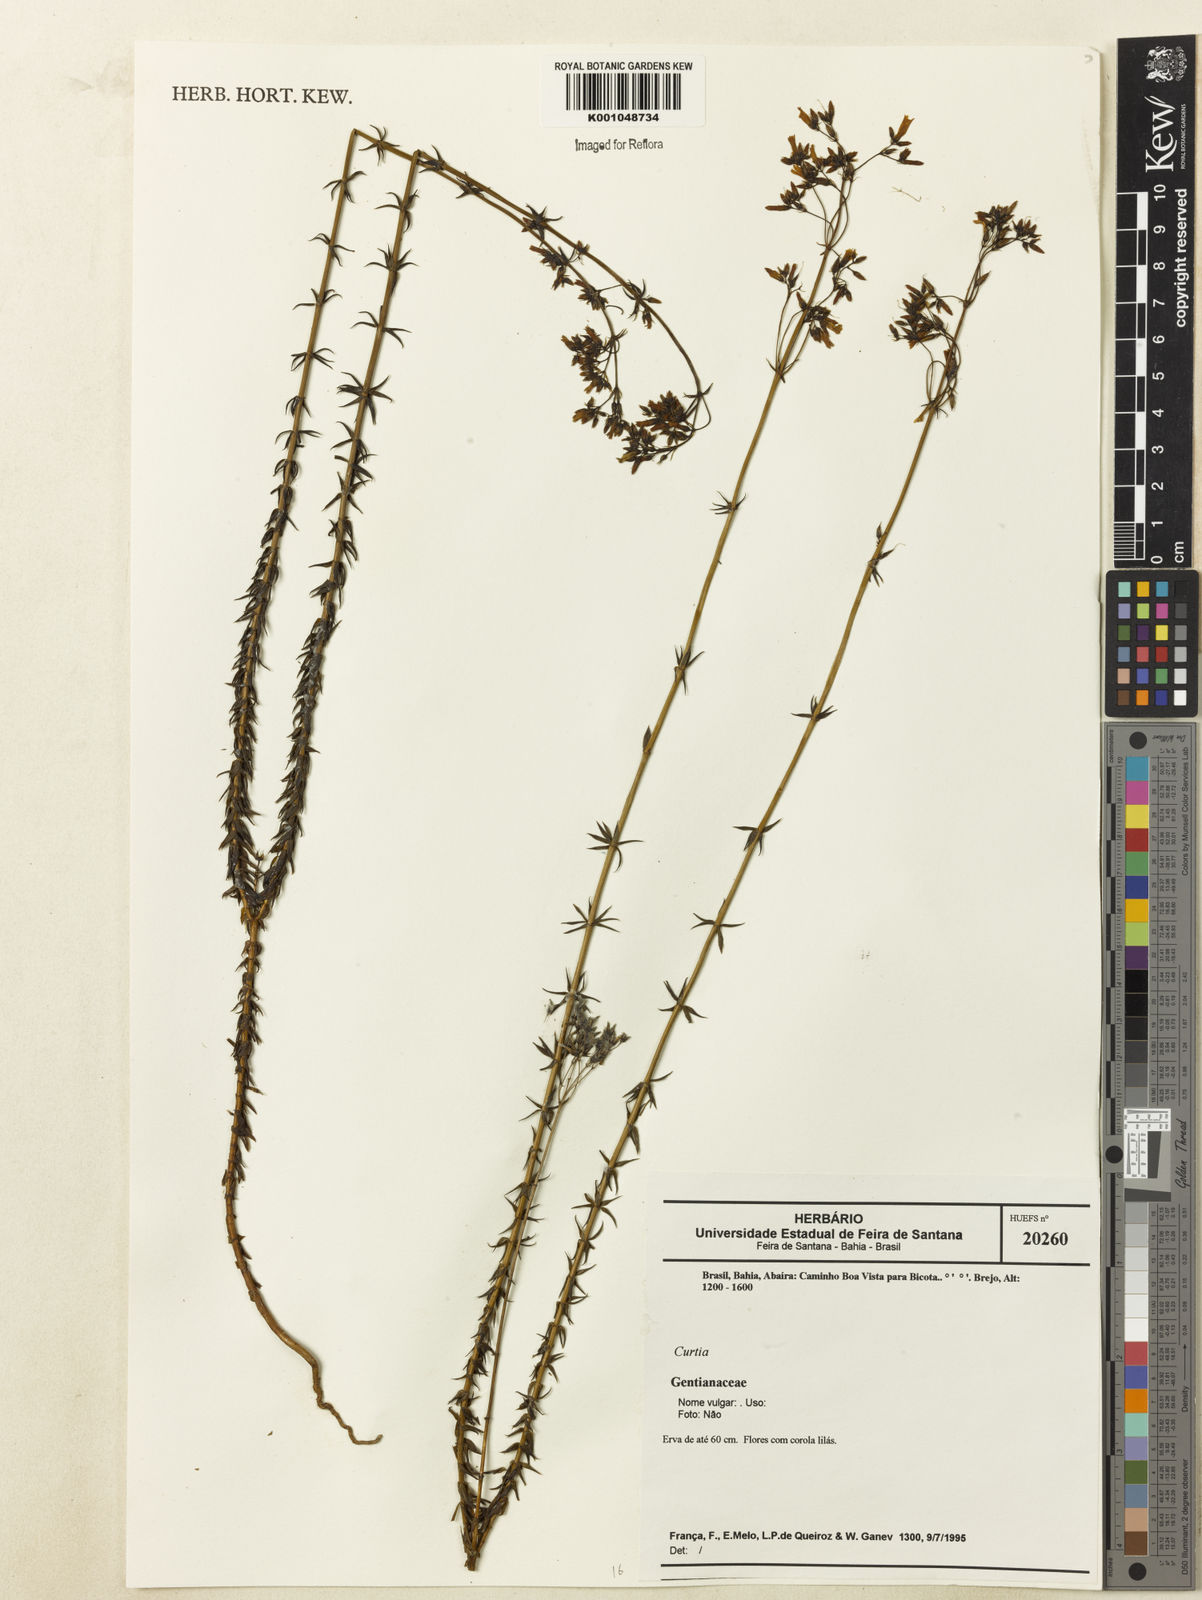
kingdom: Plantae
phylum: Tracheophyta
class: Magnoliopsida
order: Gentianales
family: Gentianaceae
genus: Curtia
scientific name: Curtia
